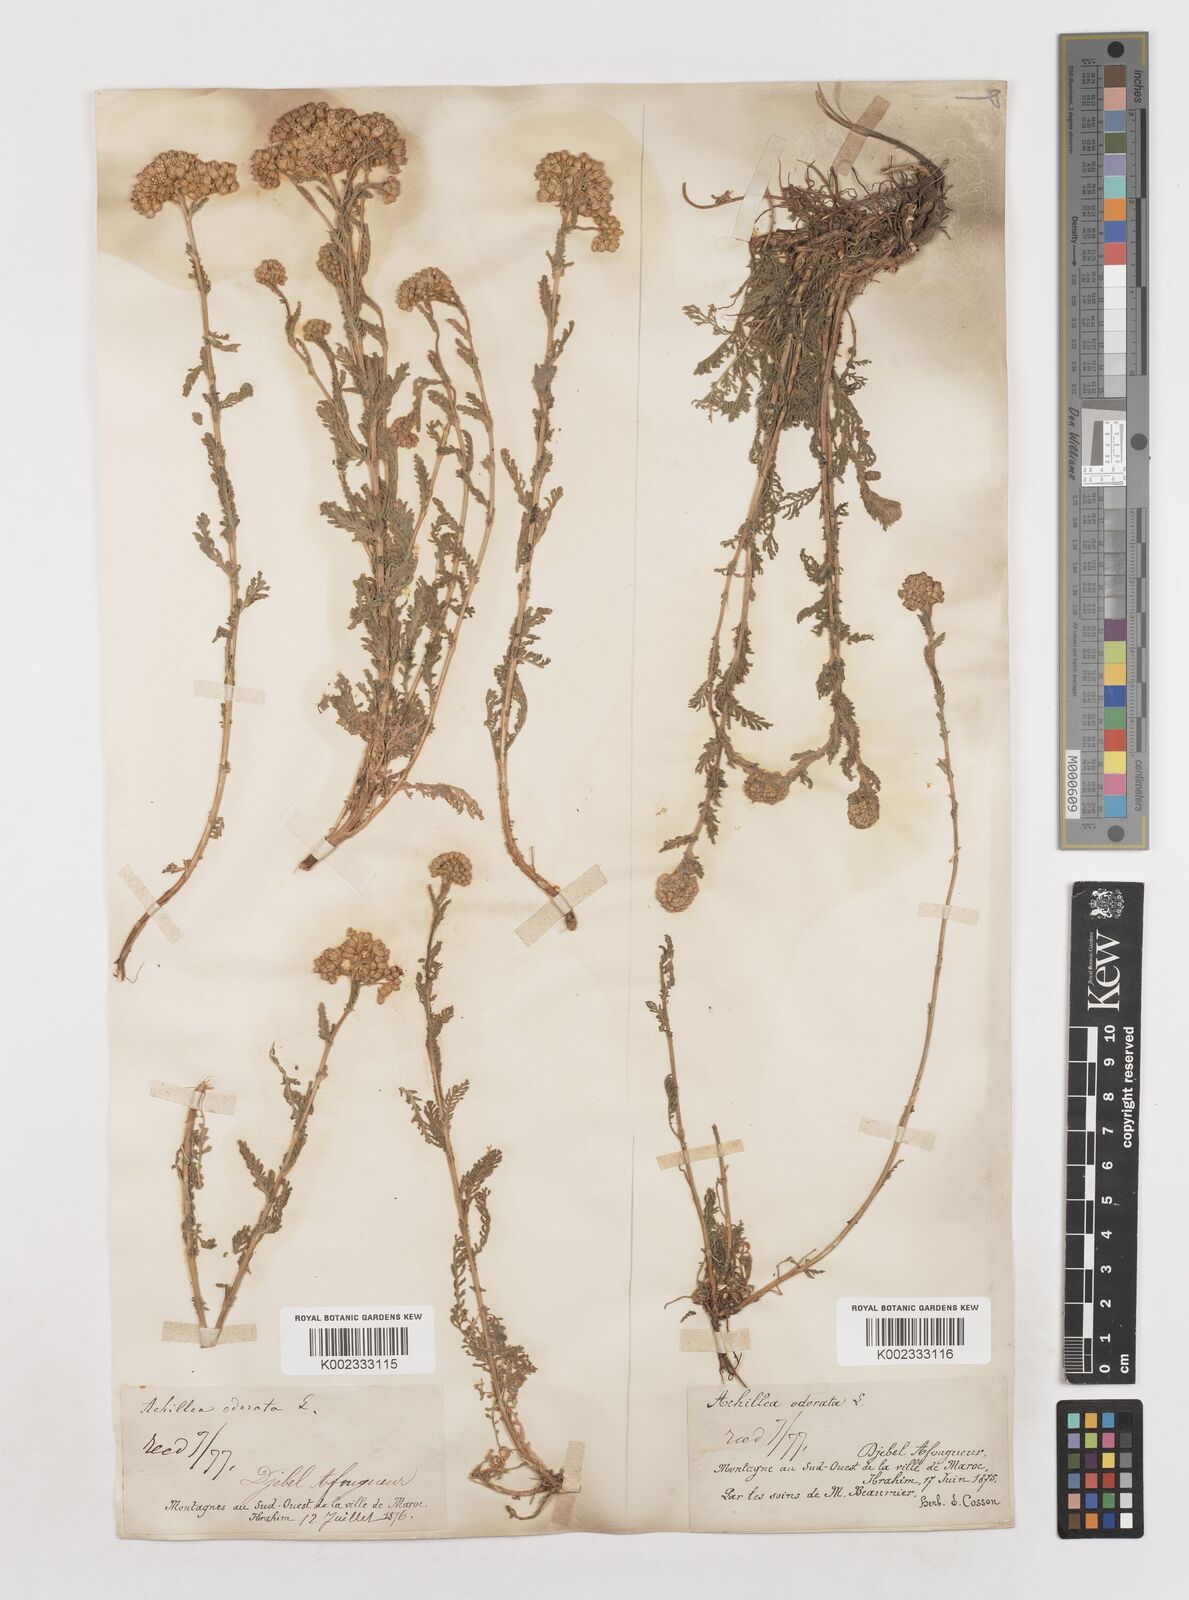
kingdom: Plantae
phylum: Tracheophyta
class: Magnoliopsida
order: Asterales
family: Asteraceae
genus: Achillea
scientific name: Achillea odorata
